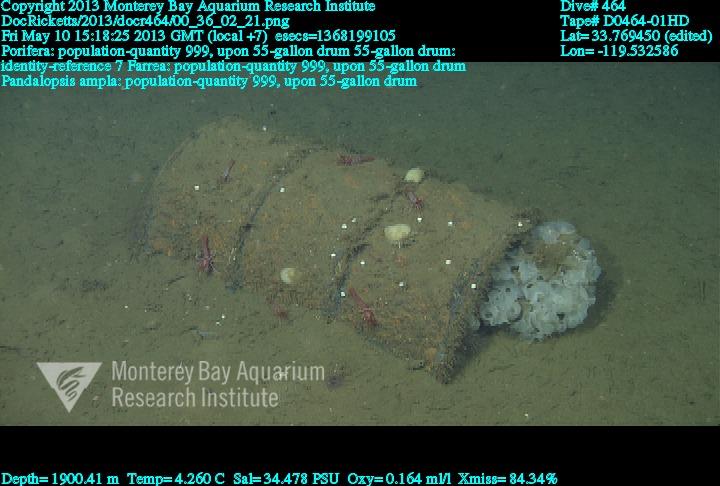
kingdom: Animalia
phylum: Porifera
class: Hexactinellida
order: Sceptrulophora
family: Farreidae
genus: Farrea
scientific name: Farrea
